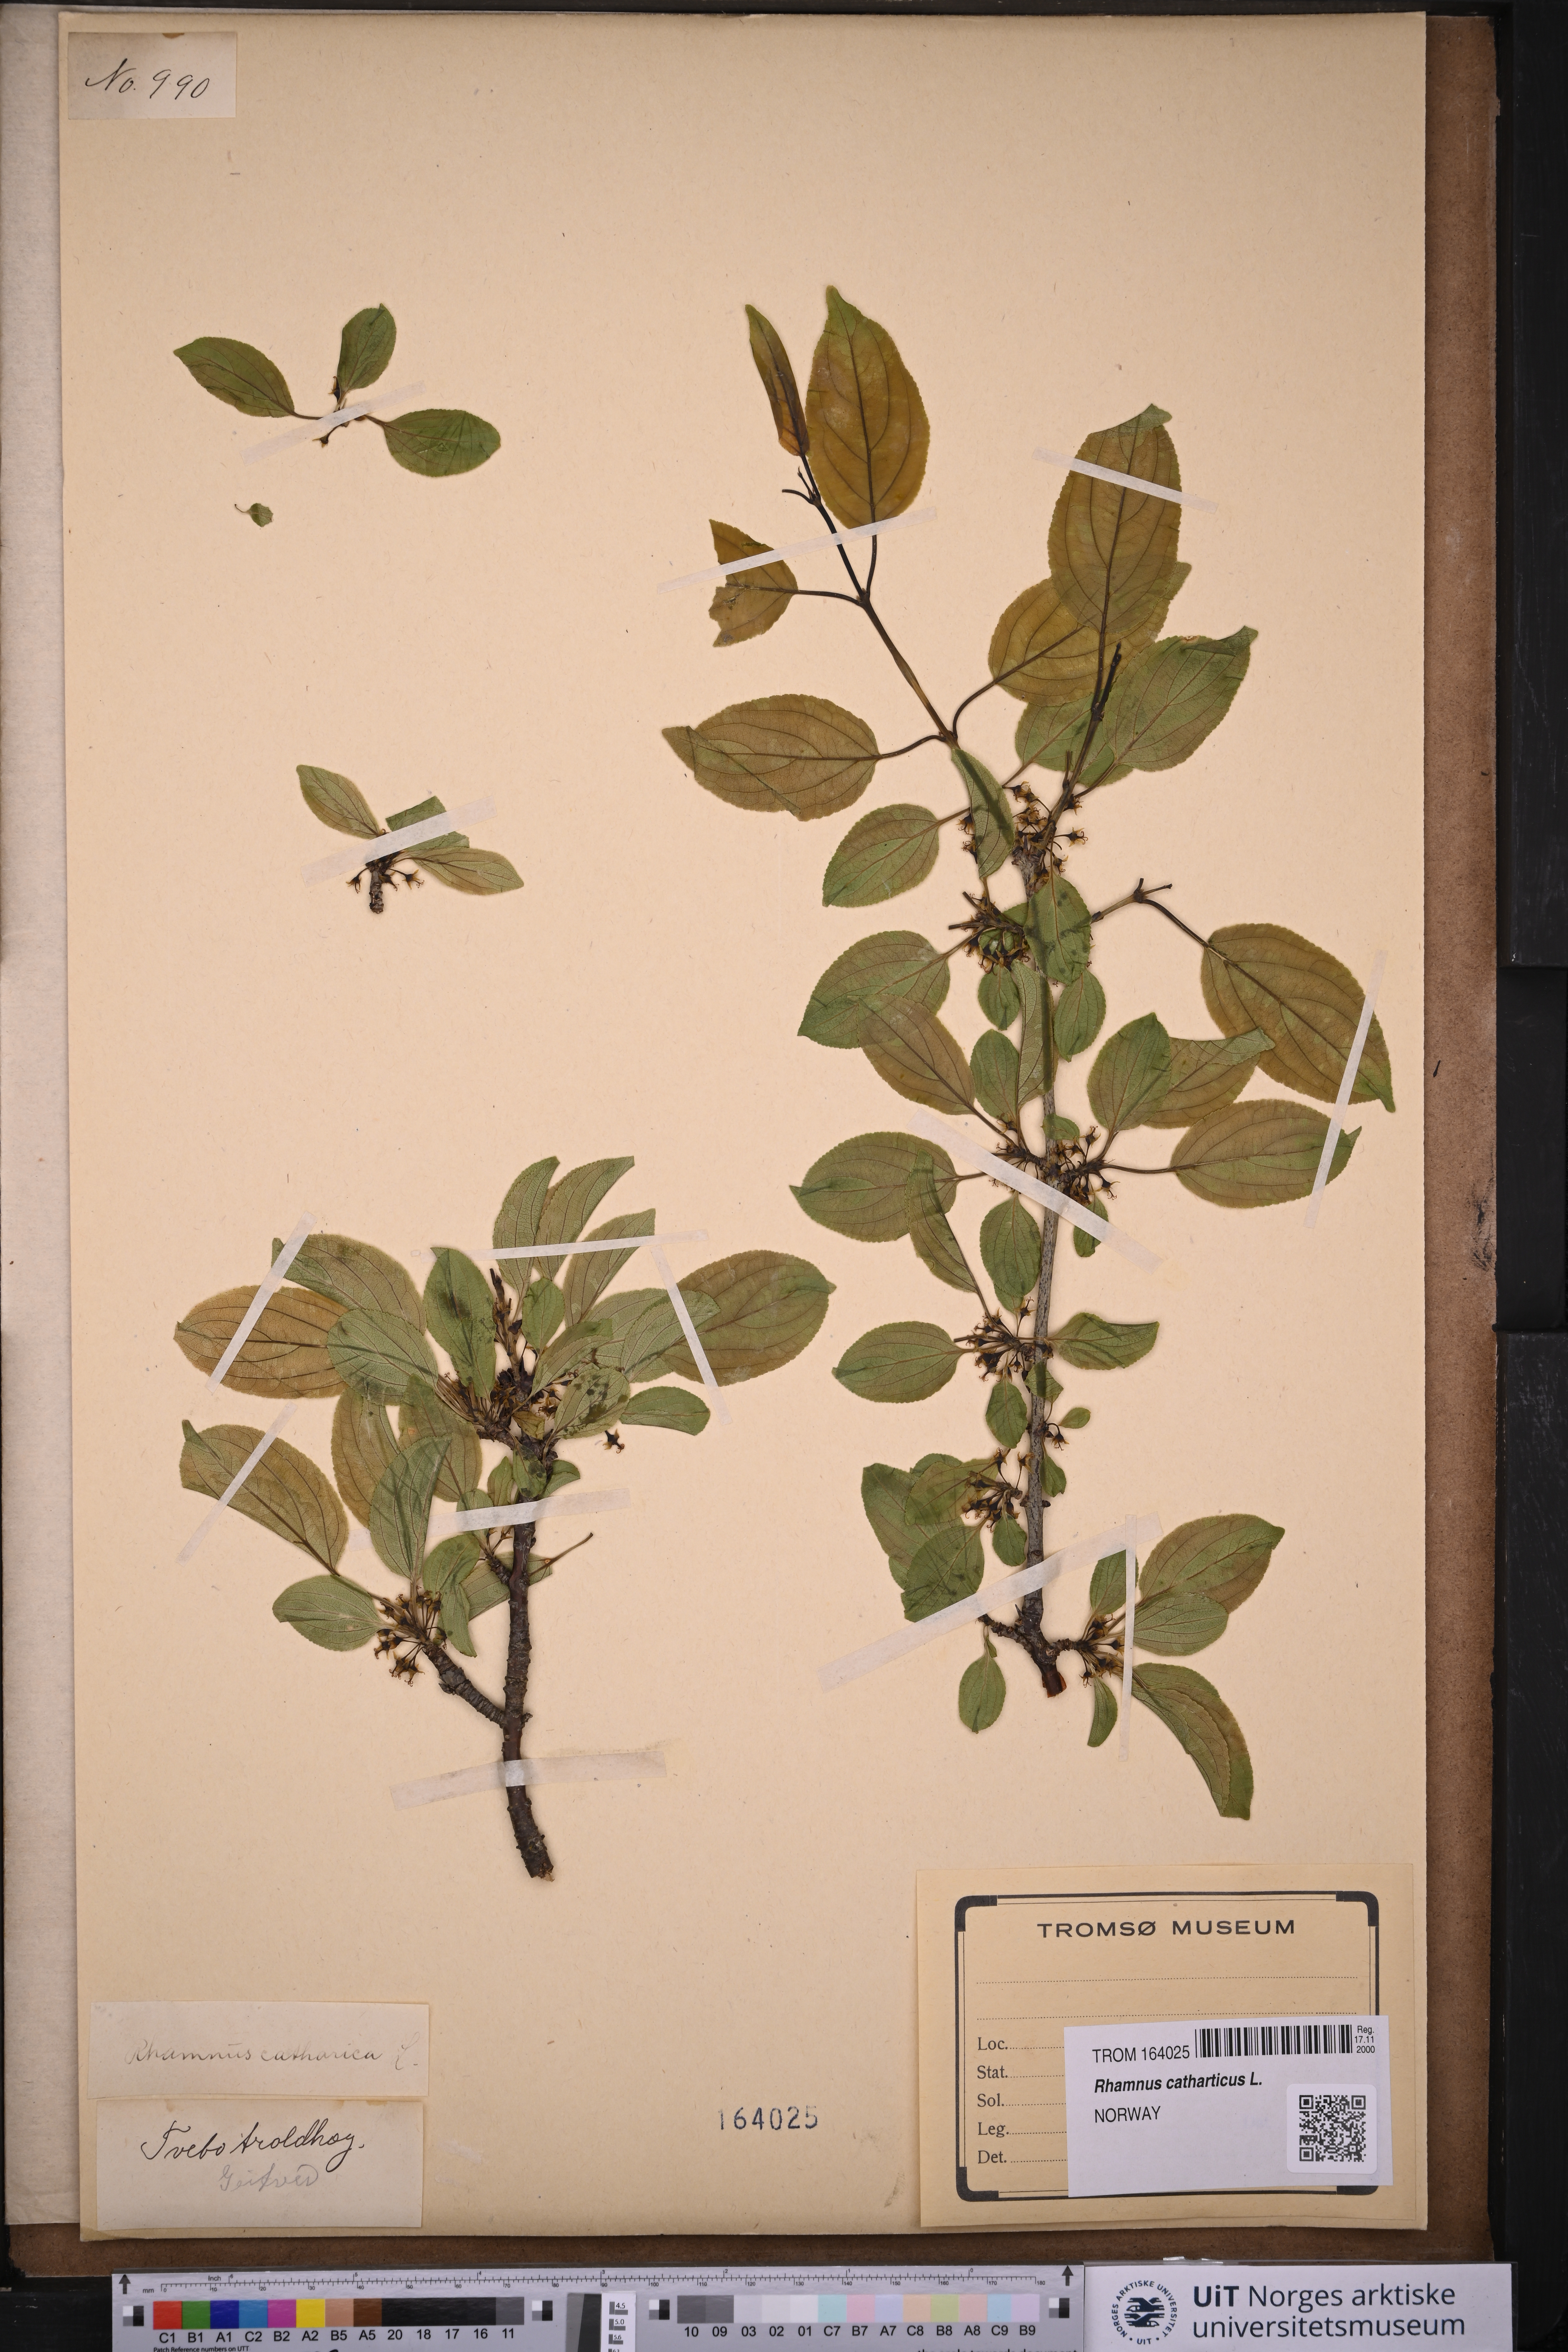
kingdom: Plantae
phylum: Tracheophyta
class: Magnoliopsida
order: Rosales
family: Rhamnaceae
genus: Rhamnus
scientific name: Rhamnus cathartica
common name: Common buckthorn
